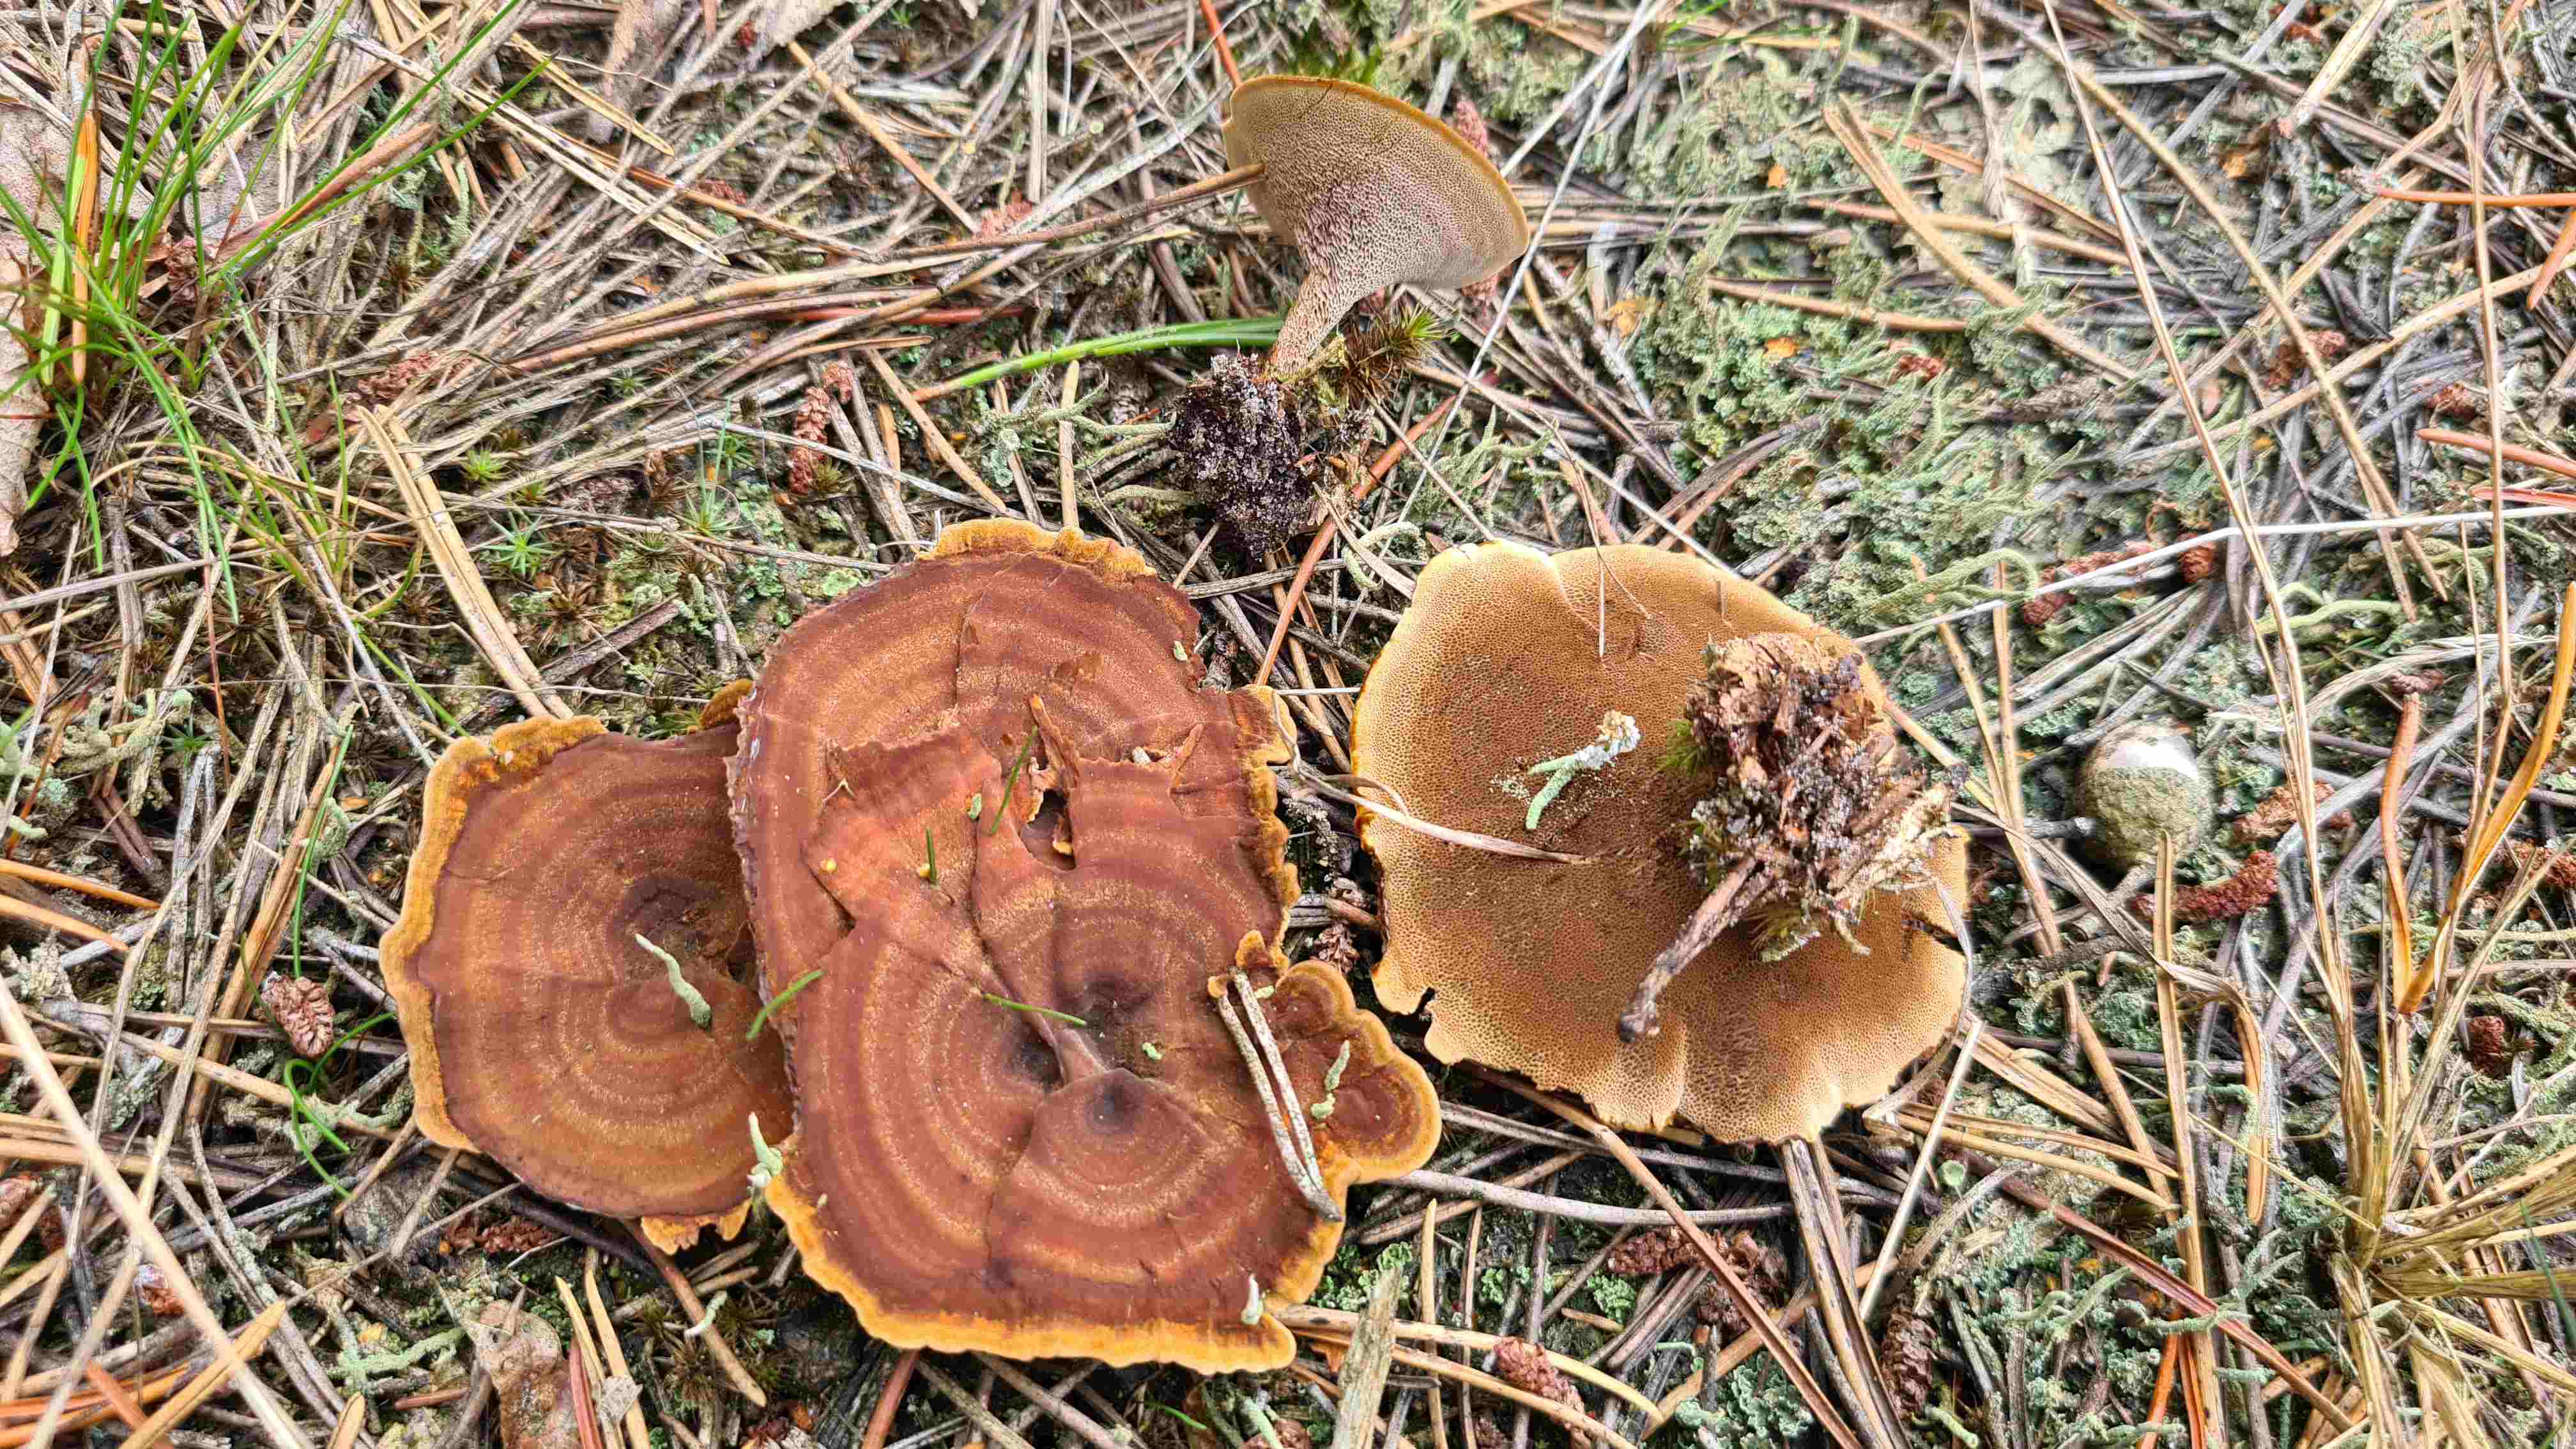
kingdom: Fungi
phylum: Basidiomycota
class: Agaricomycetes
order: Hymenochaetales
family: Hymenochaetaceae
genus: Coltricia
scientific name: Coltricia perennis
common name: almindelig sandporesvamp
